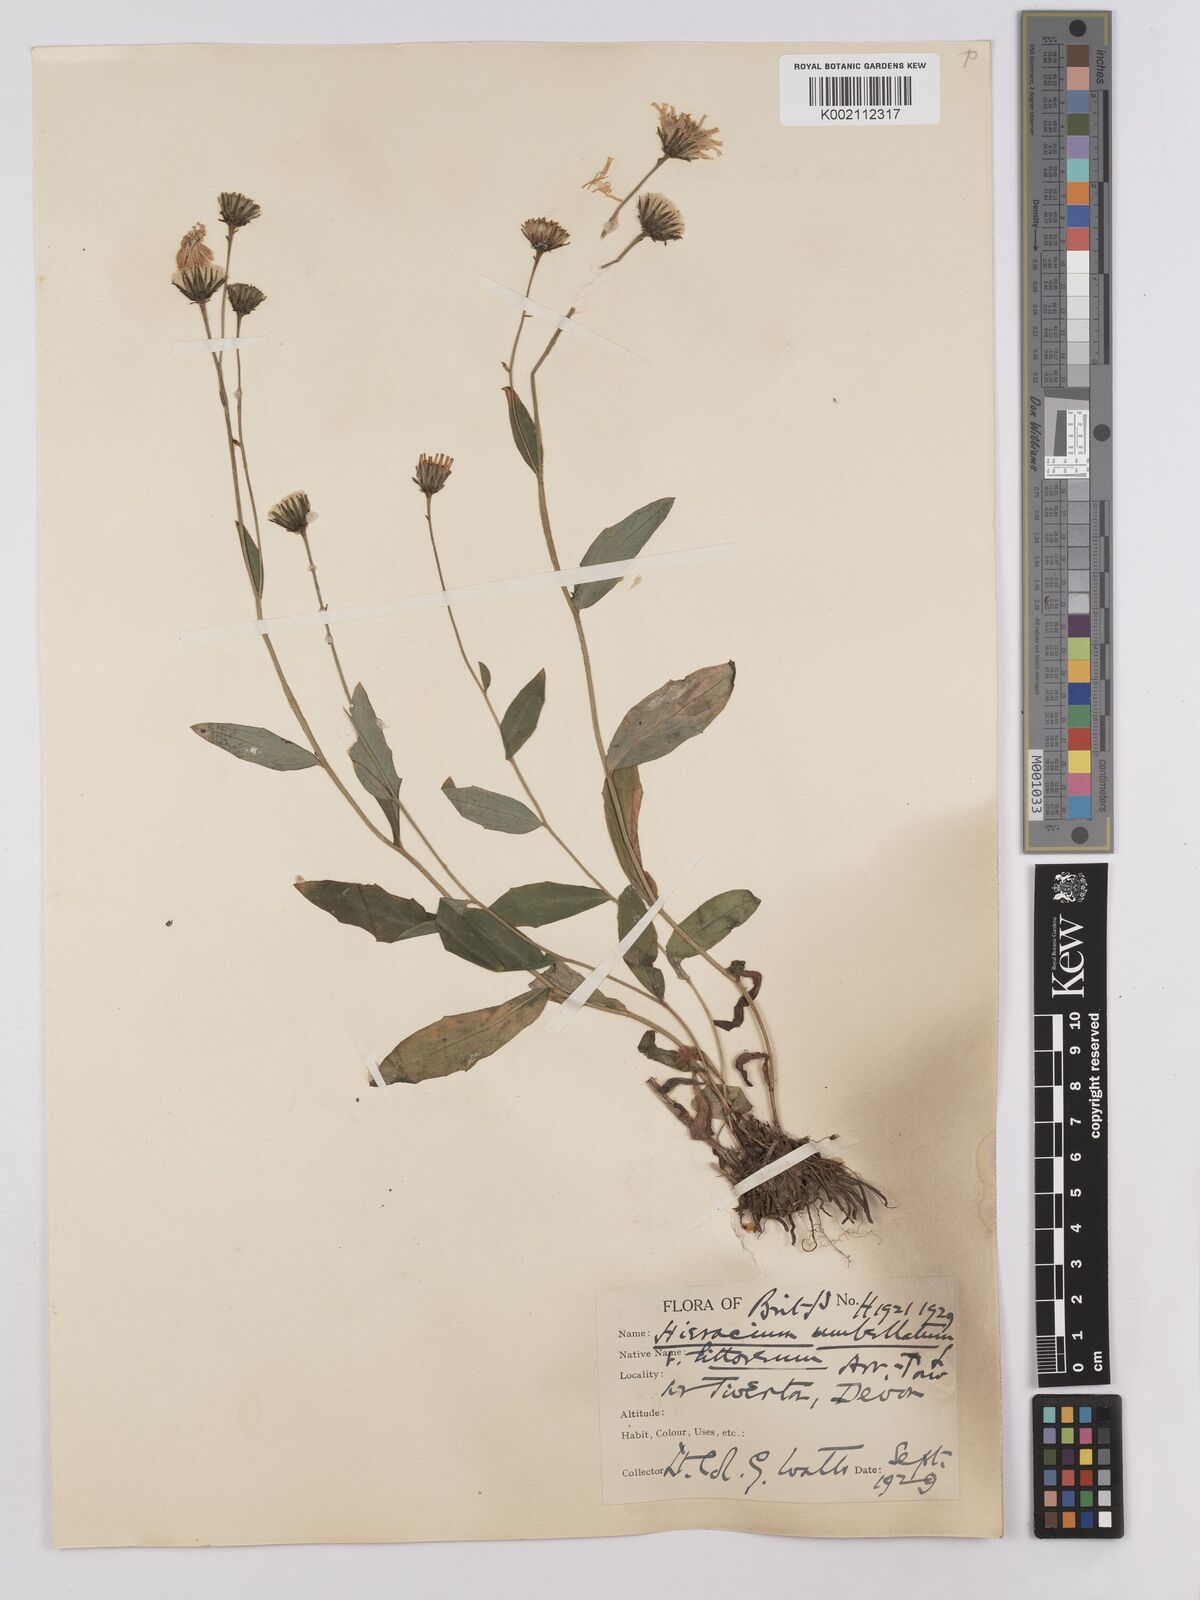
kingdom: Plantae
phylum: Tracheophyta
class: Magnoliopsida
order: Asterales
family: Asteraceae
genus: Hieracium
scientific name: Hieracium umbellatum
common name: Northern hawkweed
